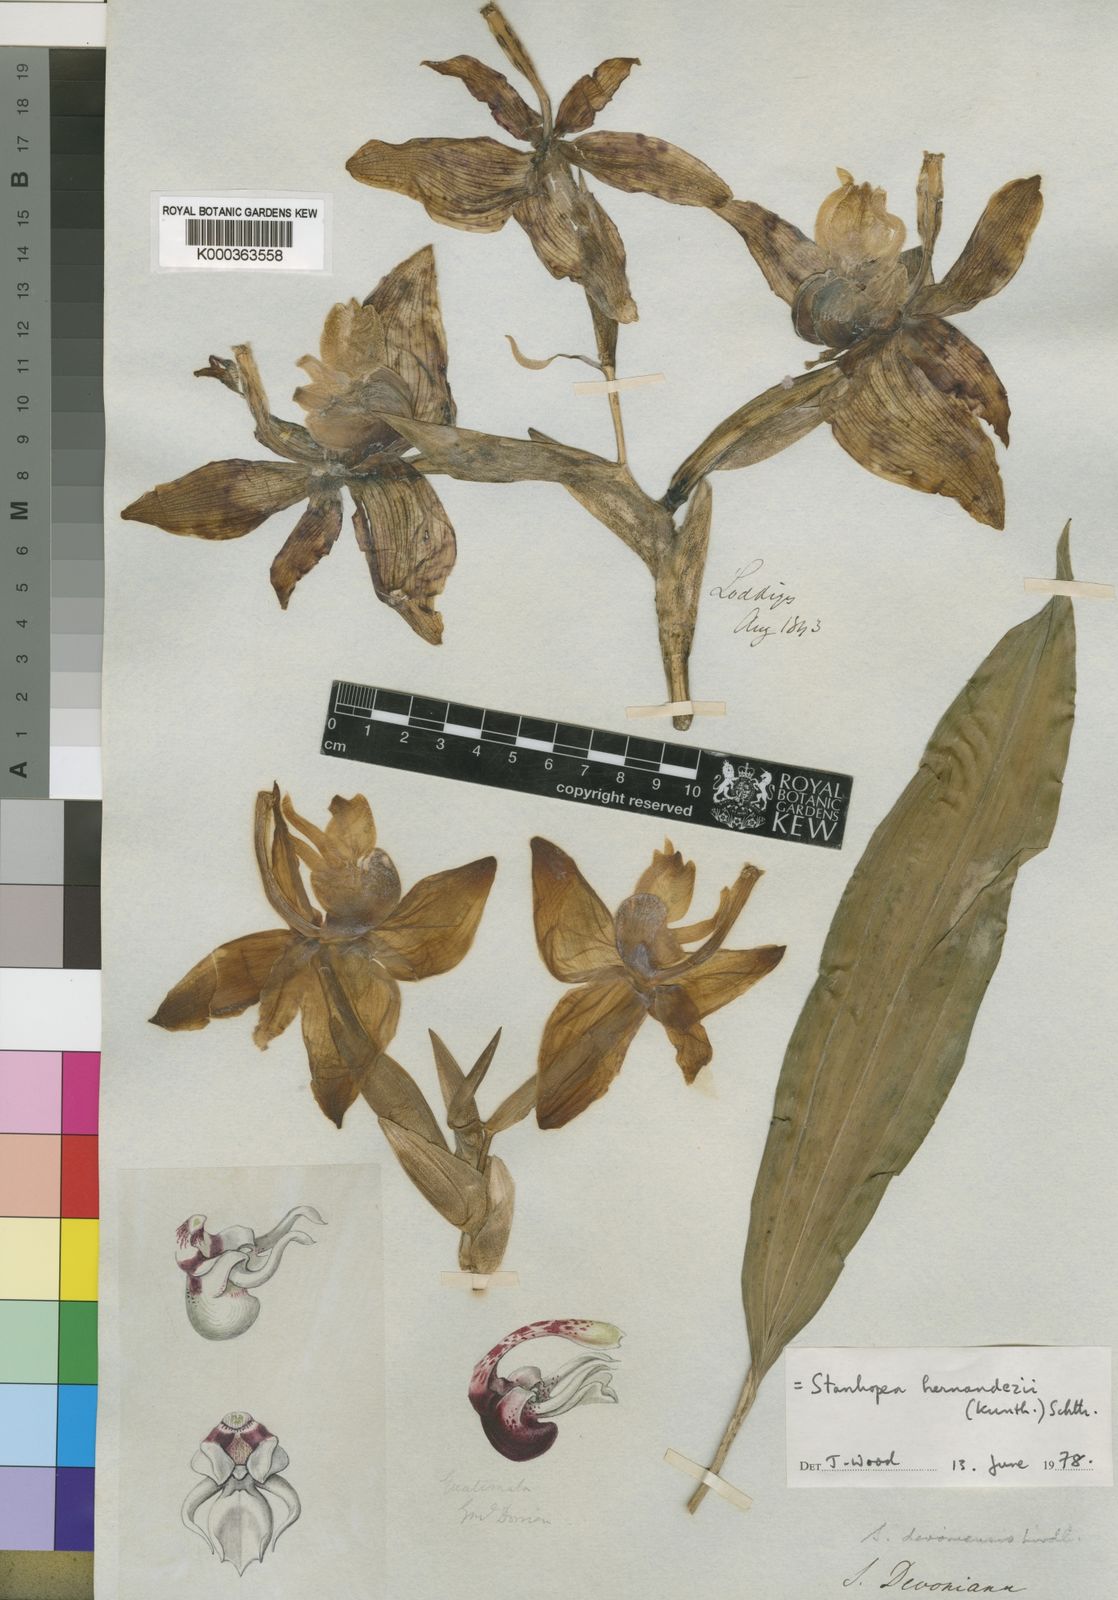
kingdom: Plantae
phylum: Tracheophyta
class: Liliopsida
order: Asparagales
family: Orchidaceae
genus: Stanhopea
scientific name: Stanhopea hernandezii
